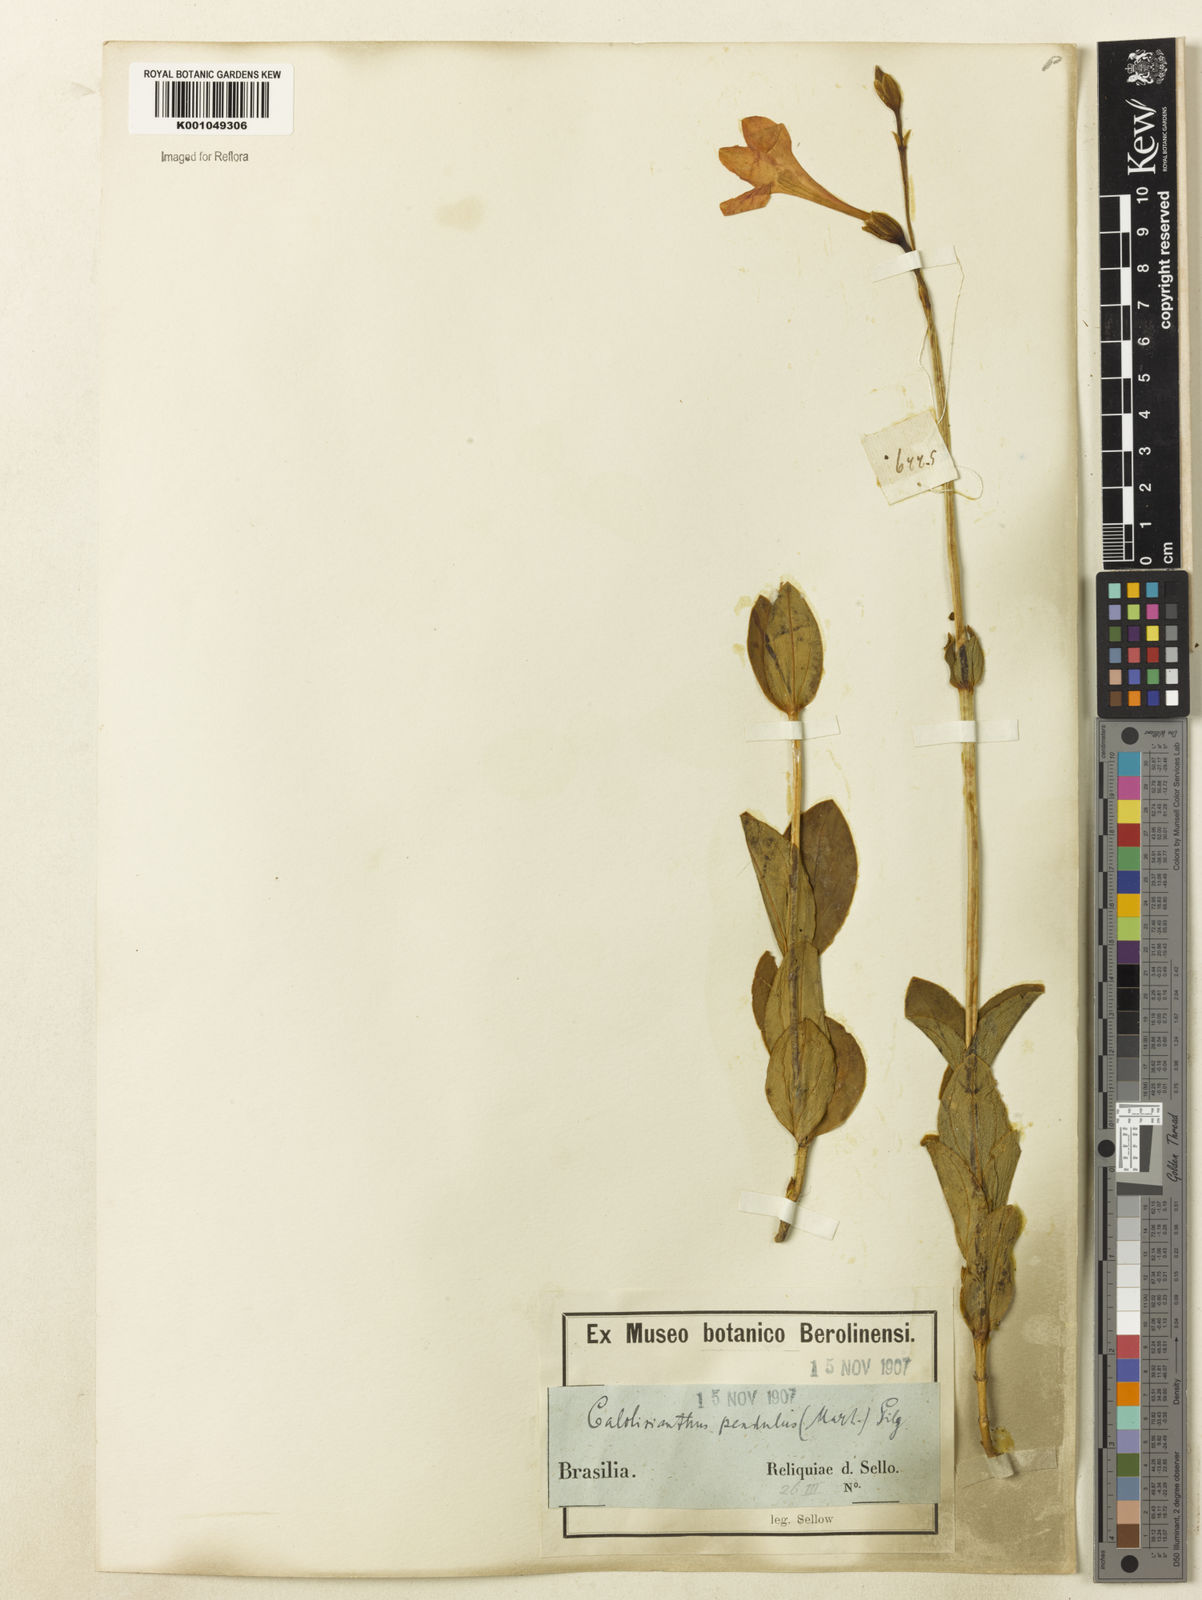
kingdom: Plantae
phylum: Tracheophyta
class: Magnoliopsida
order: Gentianales
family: Gentianaceae
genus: Calolisianthus
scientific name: Calolisianthus pendulus
